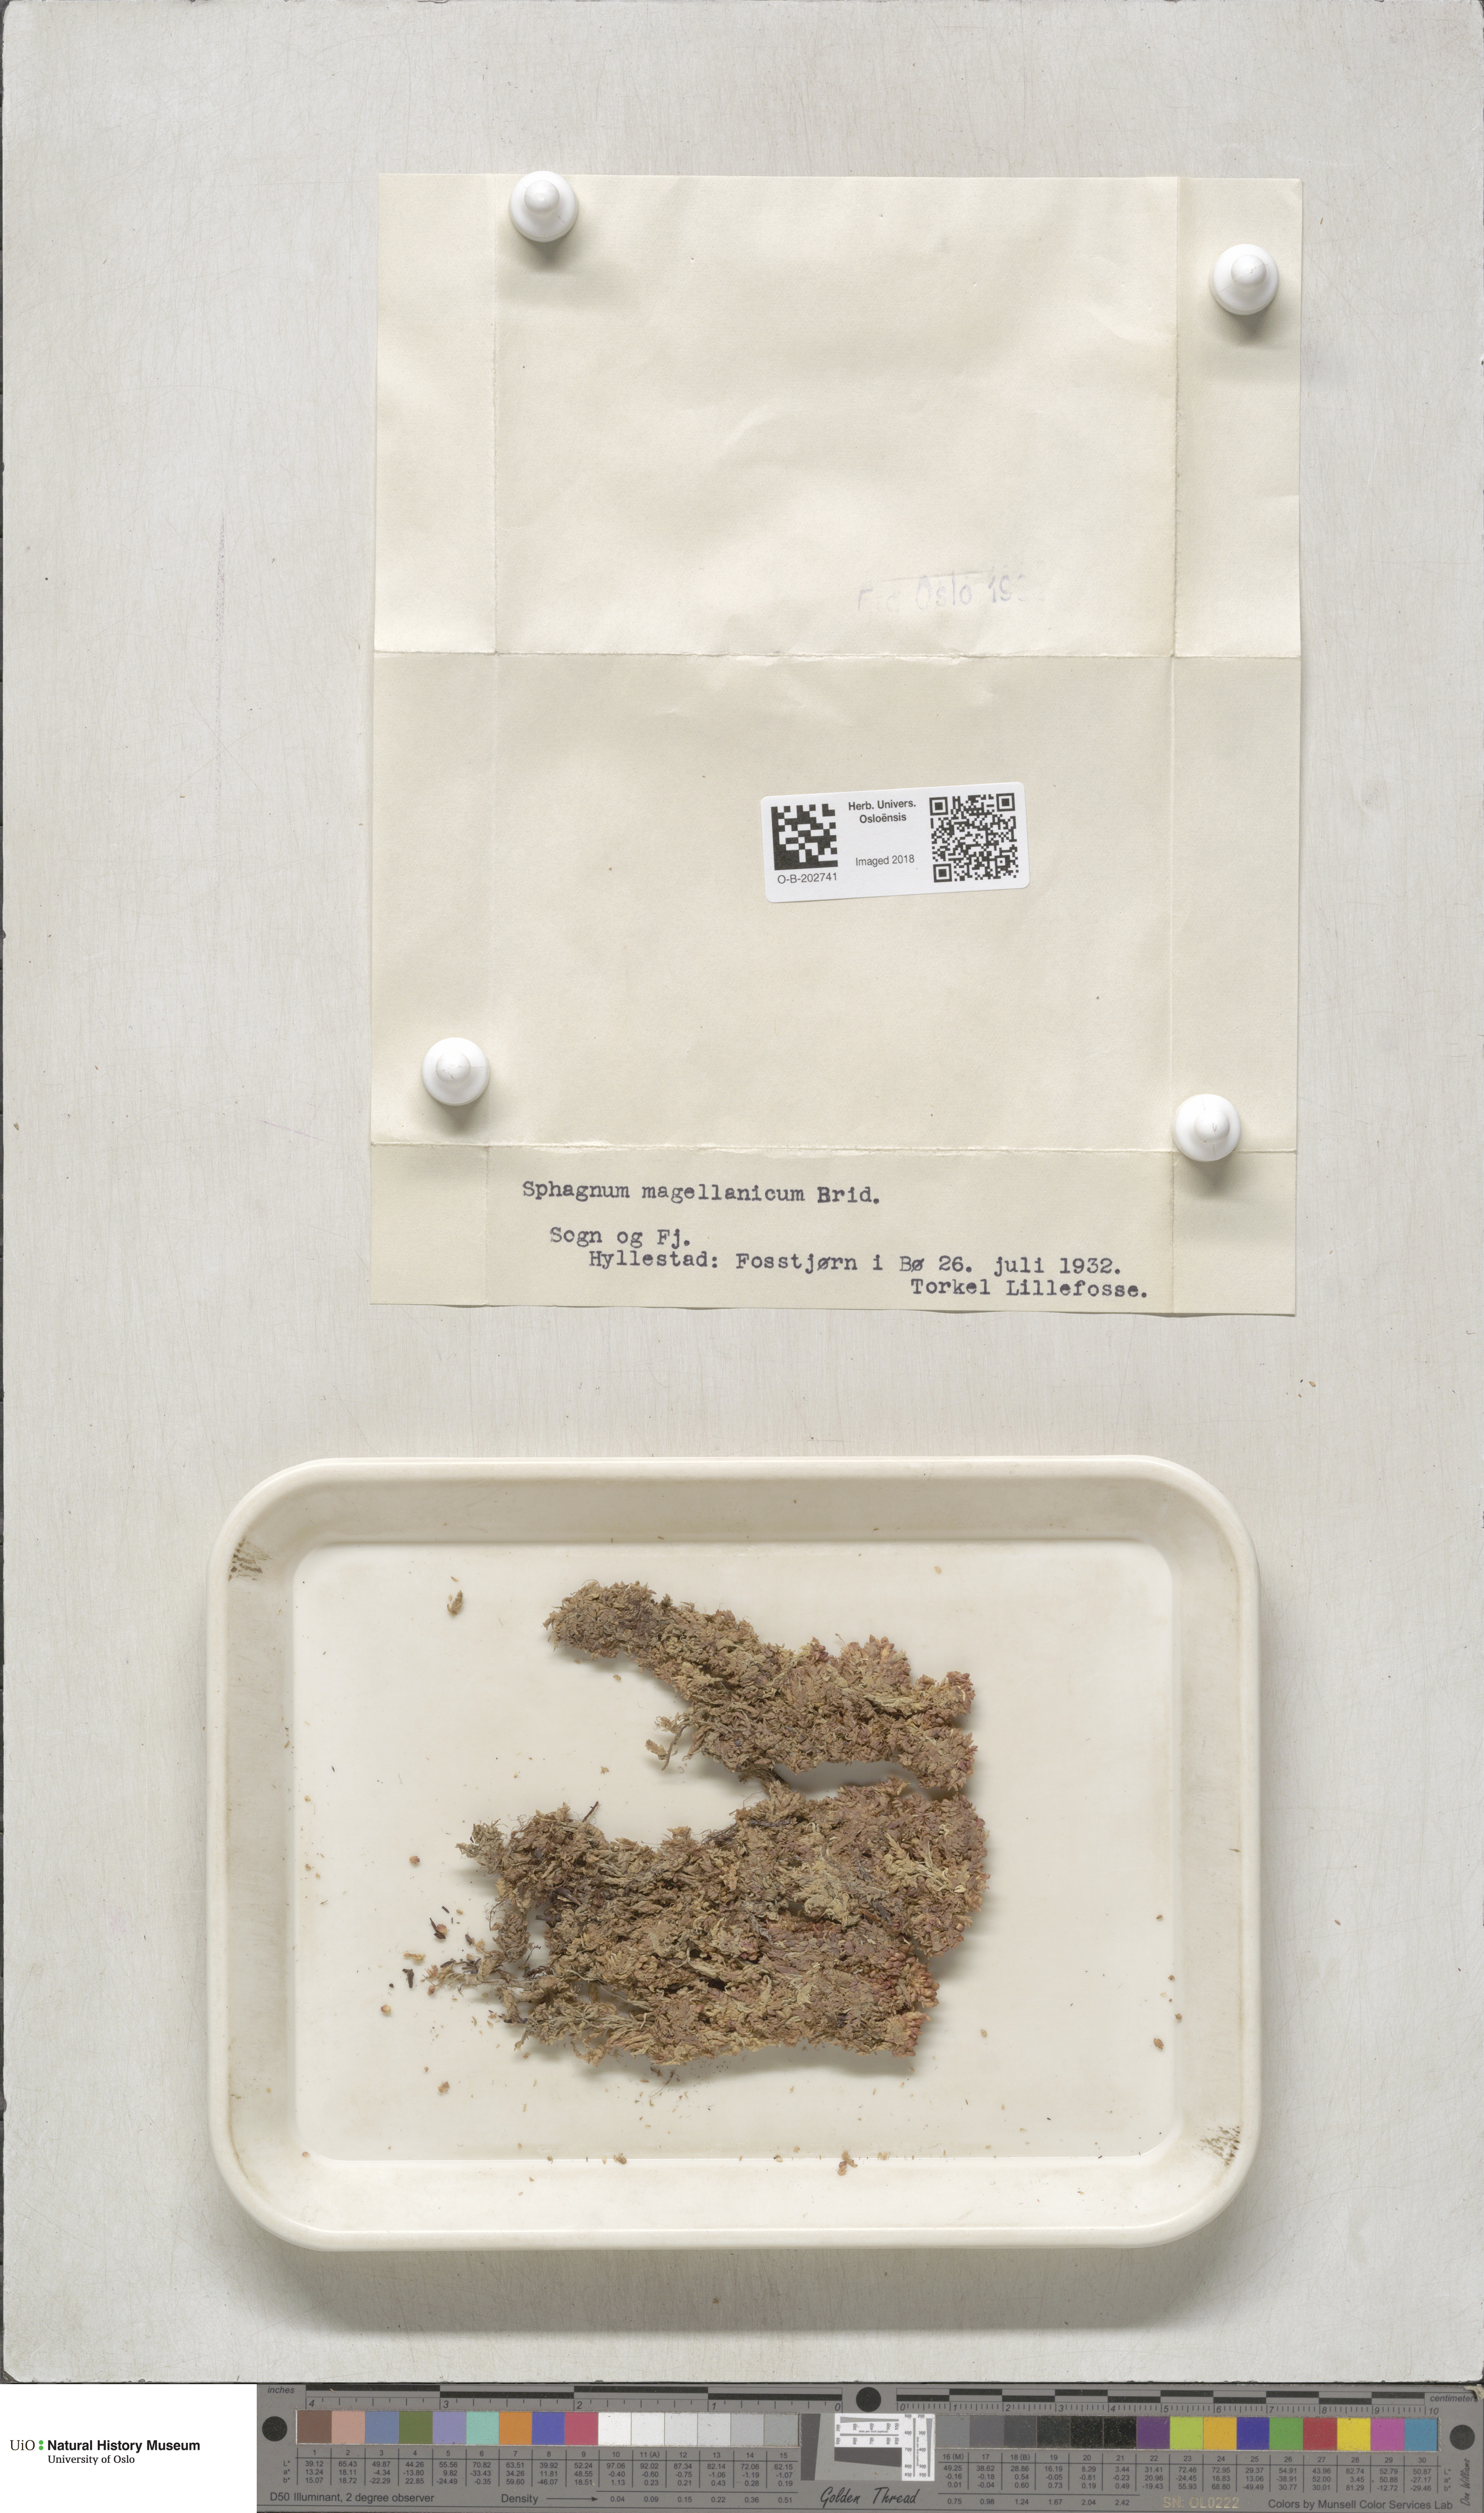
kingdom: Plantae
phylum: Bryophyta
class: Sphagnopsida
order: Sphagnales
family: Sphagnaceae
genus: Sphagnum
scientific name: Sphagnum magellanicum
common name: Magellan's peat moss
